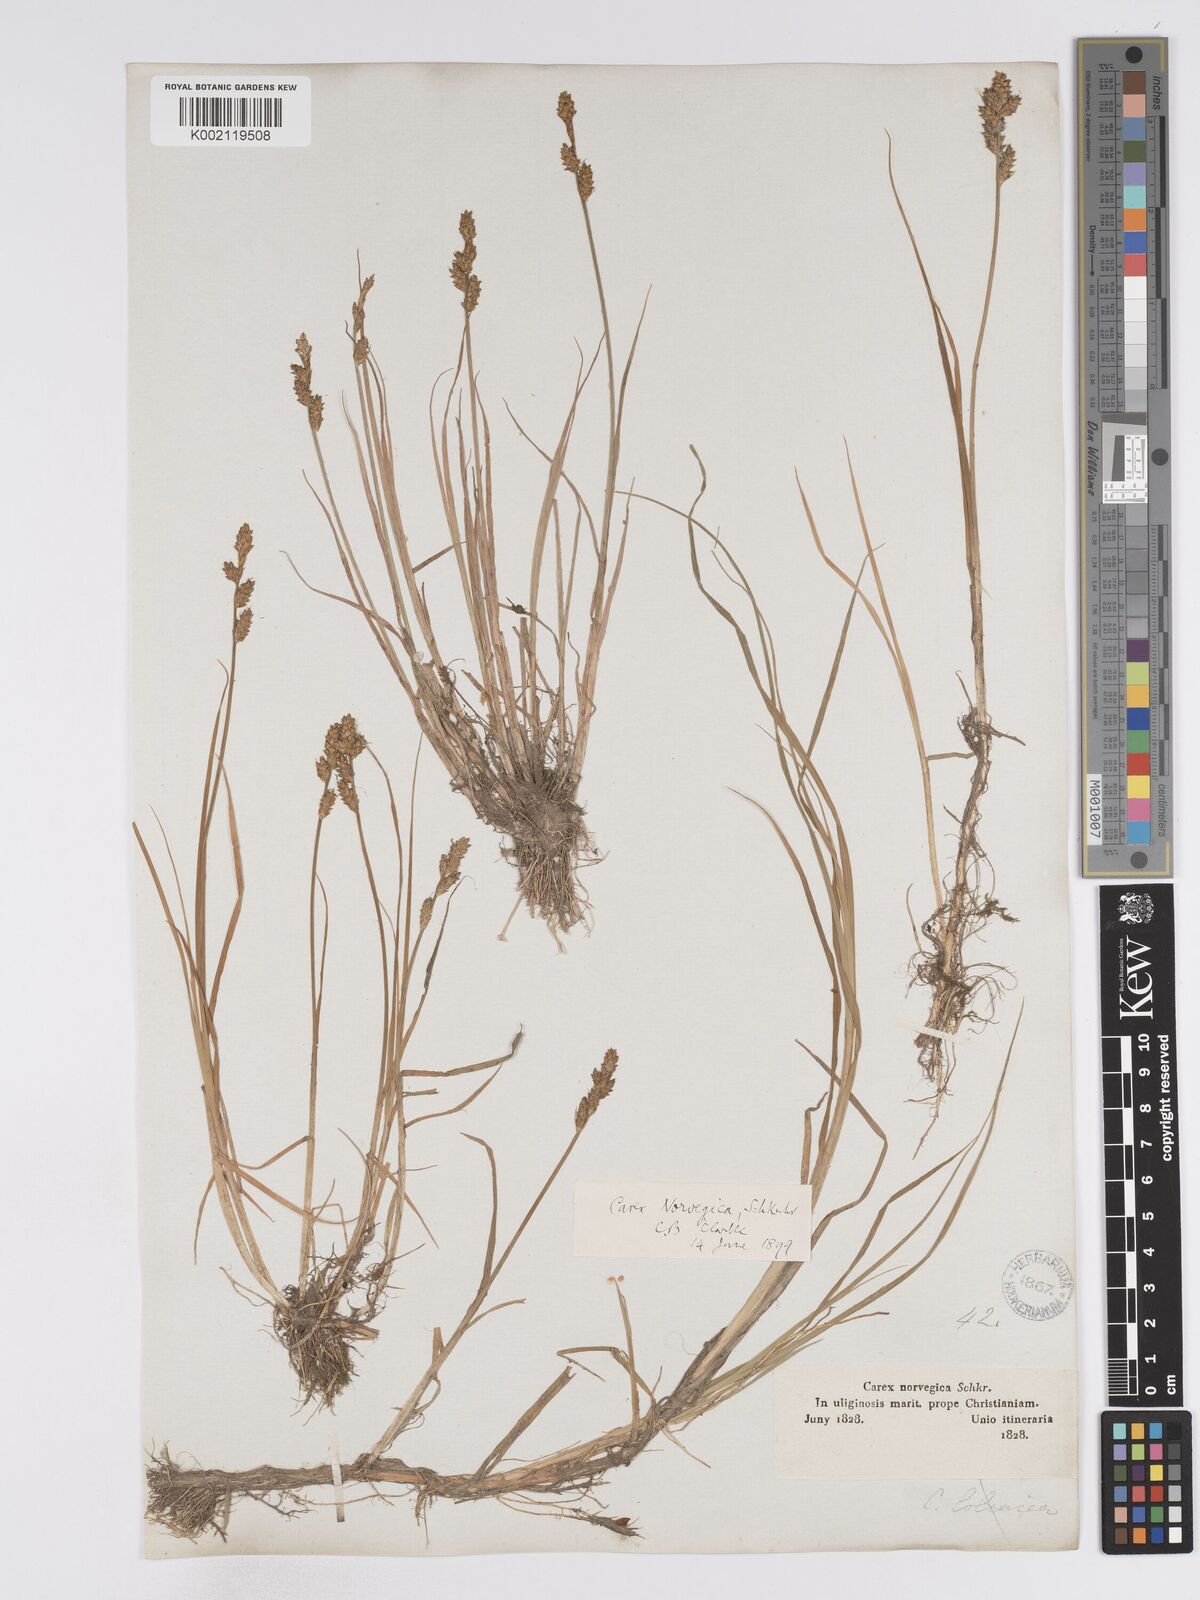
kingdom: Plantae
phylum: Tracheophyta
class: Liliopsida
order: Poales
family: Cyperaceae
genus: Carex
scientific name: Carex mackenziei
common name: Mackenzie's sedge
